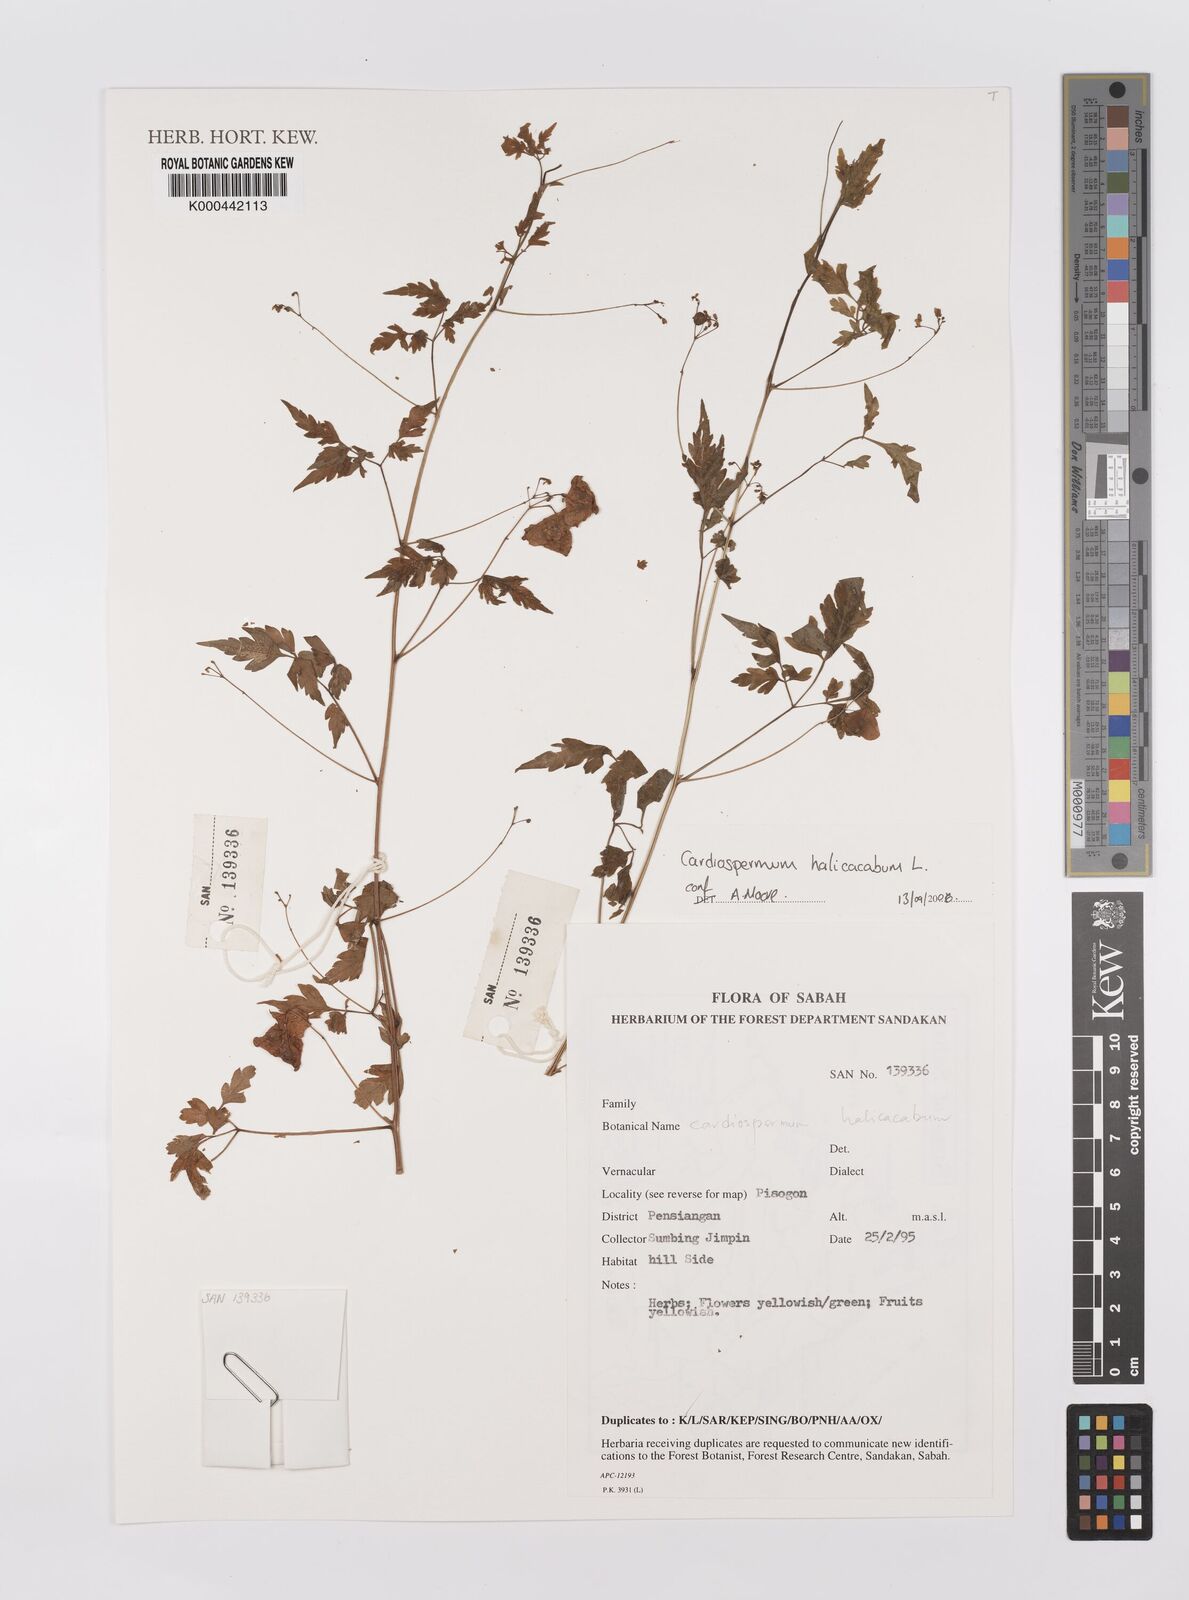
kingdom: Plantae
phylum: Tracheophyta
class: Magnoliopsida
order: Sapindales
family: Sapindaceae
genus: Cardiospermum
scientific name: Cardiospermum halicacabum
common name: Balloon vine
